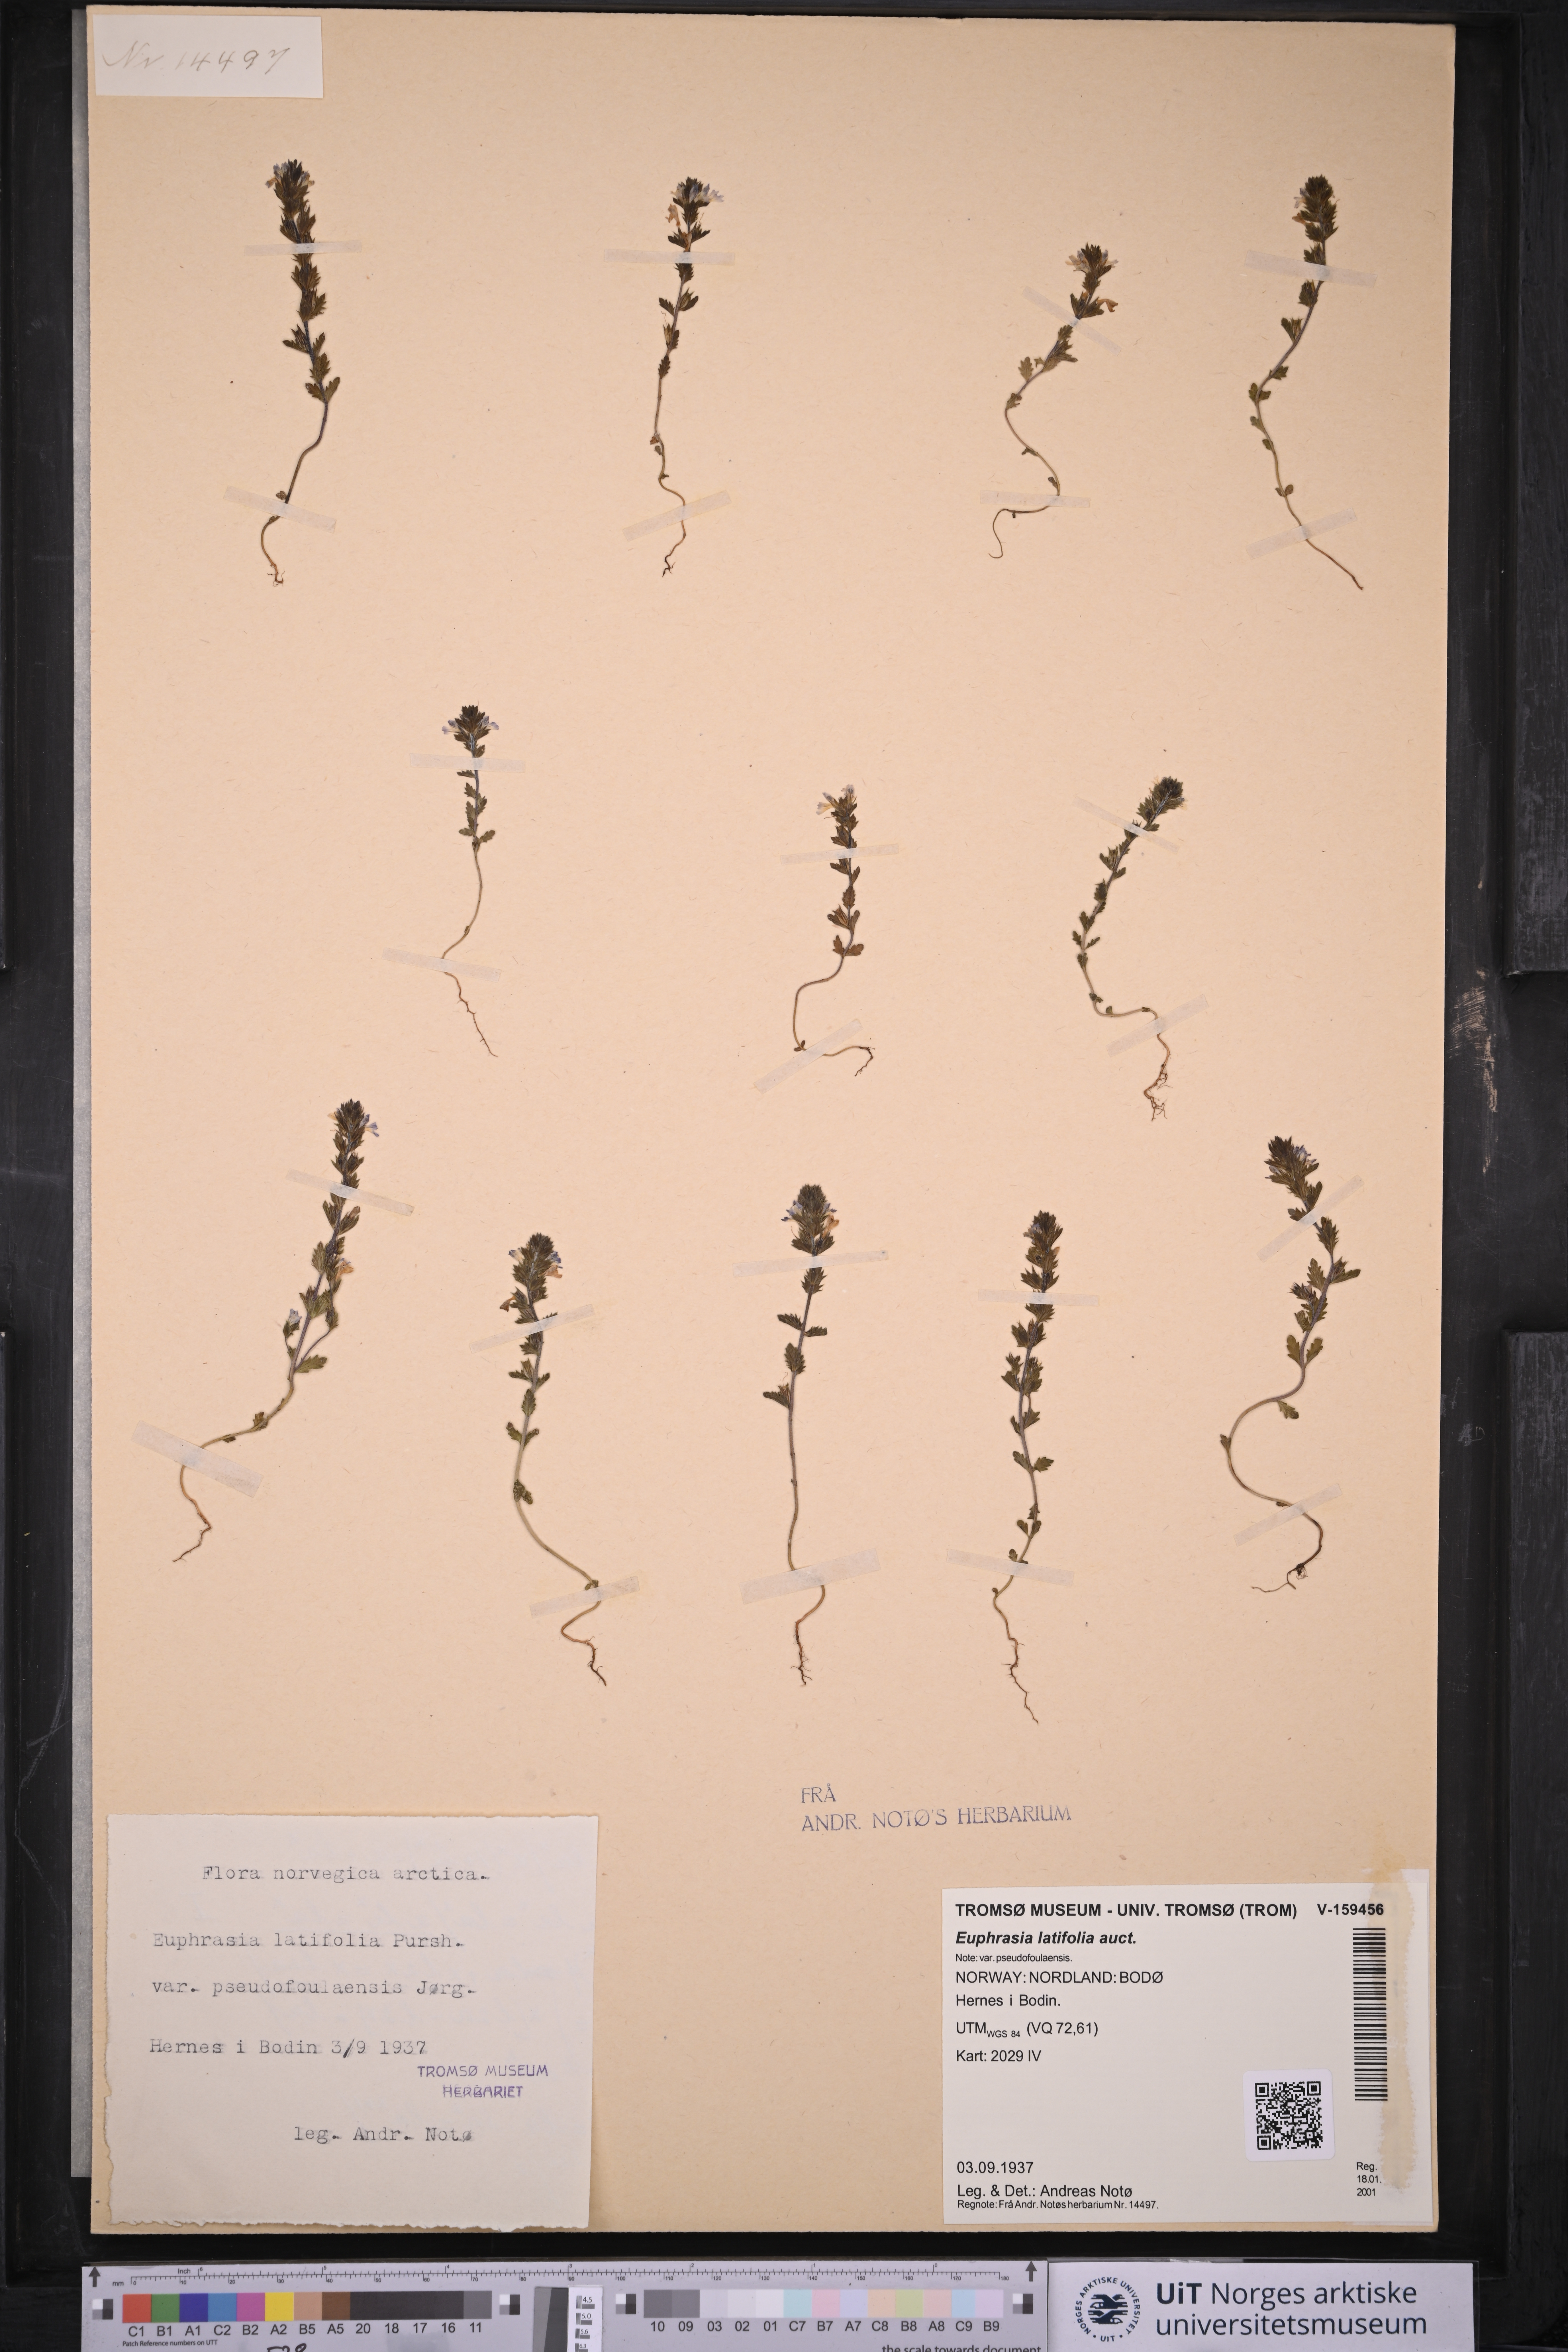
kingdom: Plantae
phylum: Tracheophyta
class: Magnoliopsida
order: Lamiales
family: Orobanchaceae
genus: Euphrasia
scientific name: Euphrasia wettsteinii
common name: Wettstein's eyebright
